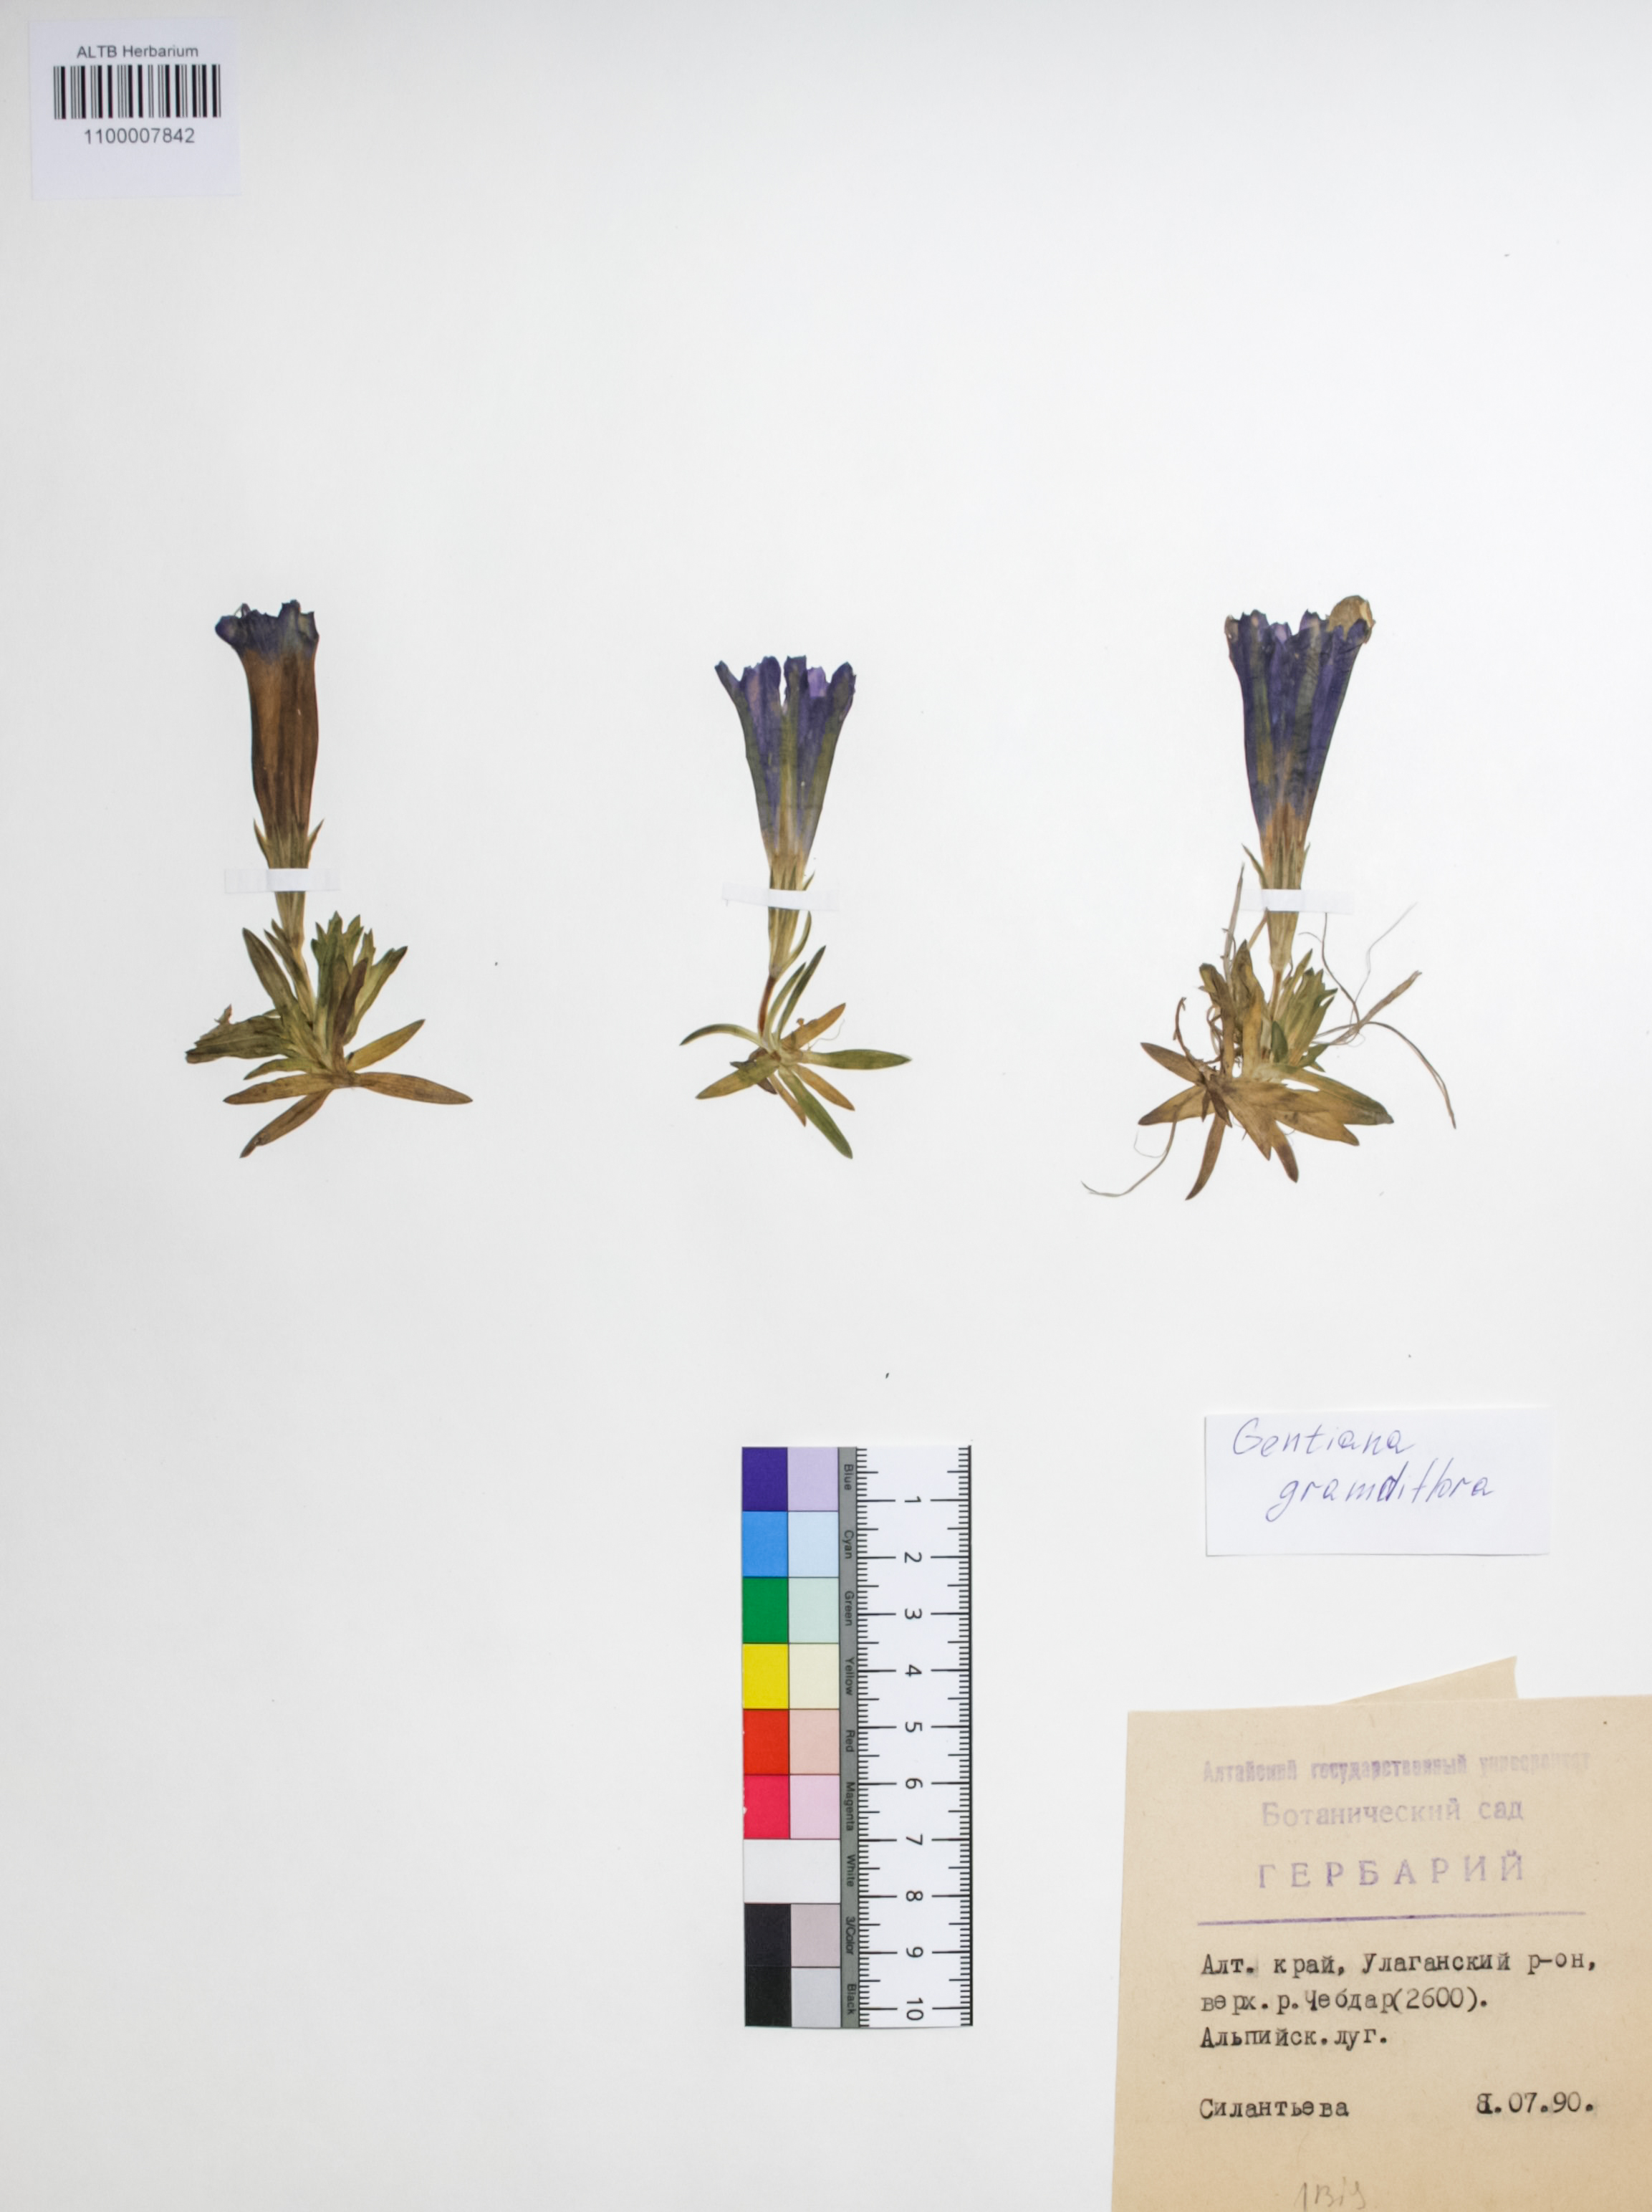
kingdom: Plantae
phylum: Tracheophyta
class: Magnoliopsida
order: Gentianales
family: Gentianaceae
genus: Gentiana
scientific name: Gentiana grandiflora
